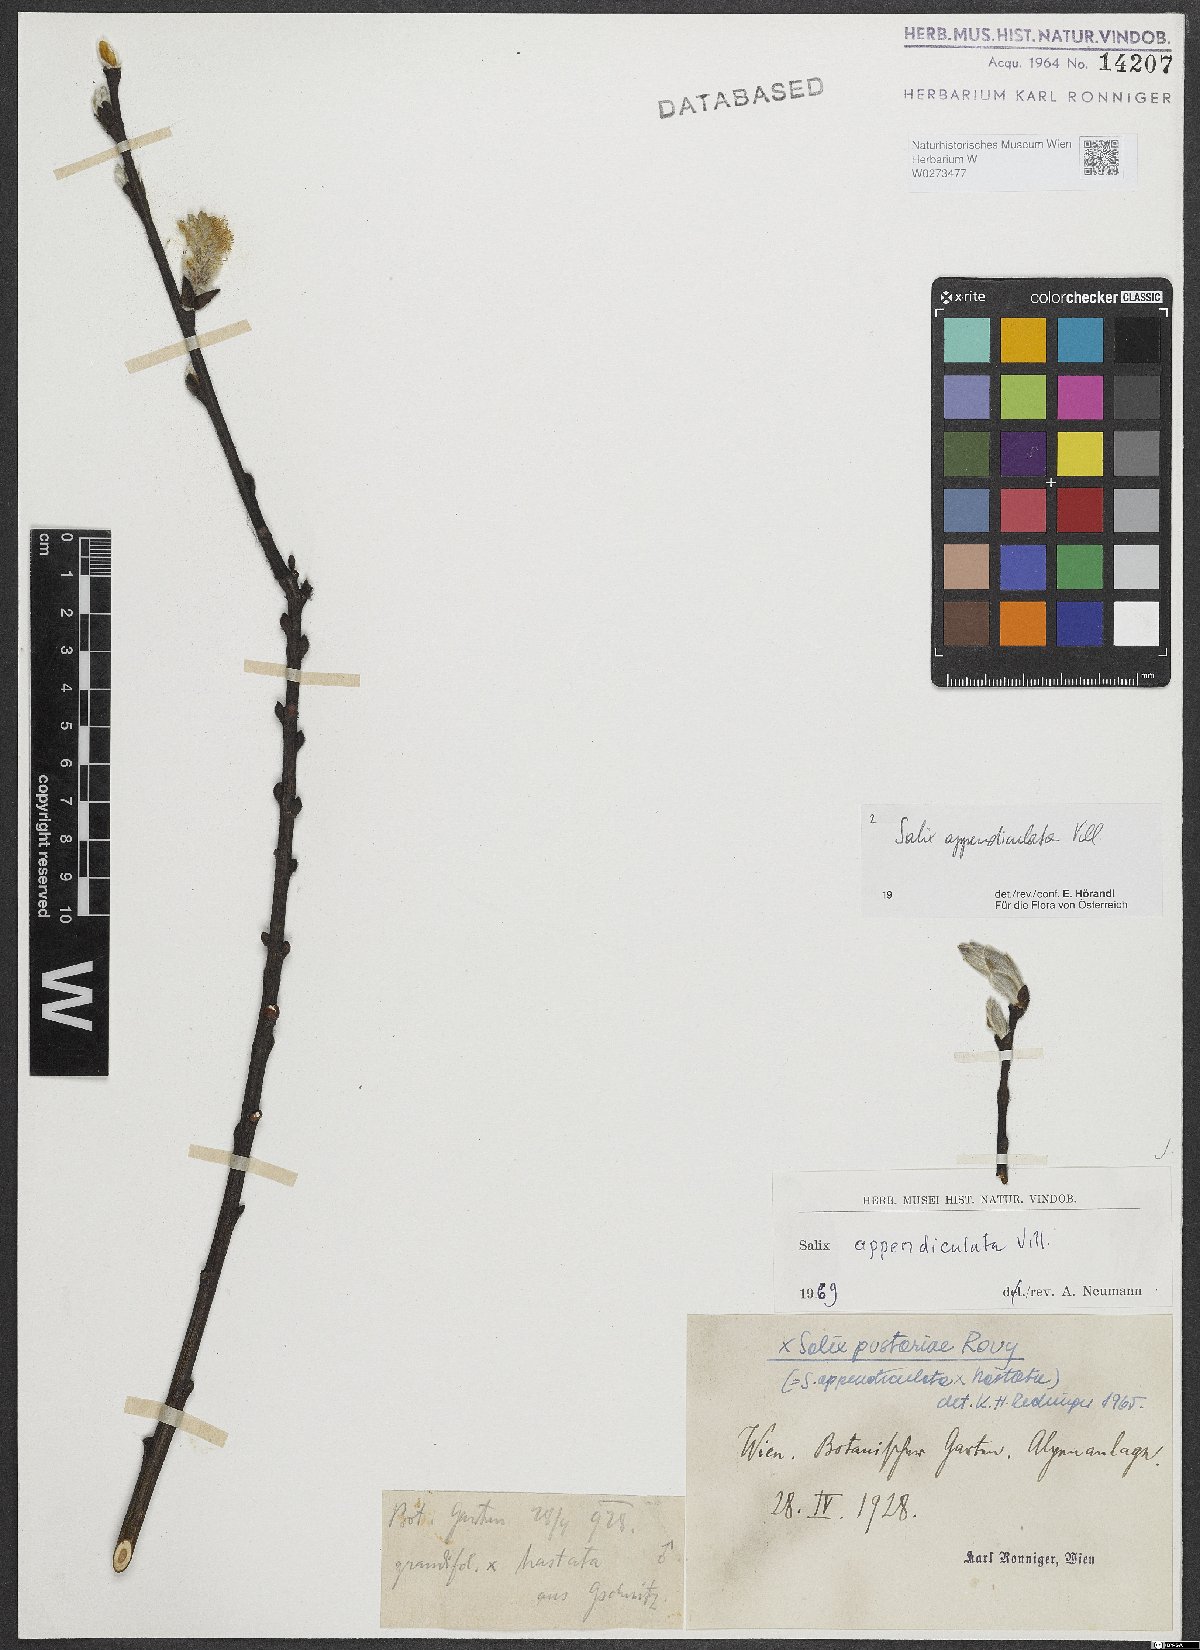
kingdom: Plantae
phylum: Tracheophyta
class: Magnoliopsida
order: Malpighiales
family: Salicaceae
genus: Salix
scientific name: Salix appendiculata
